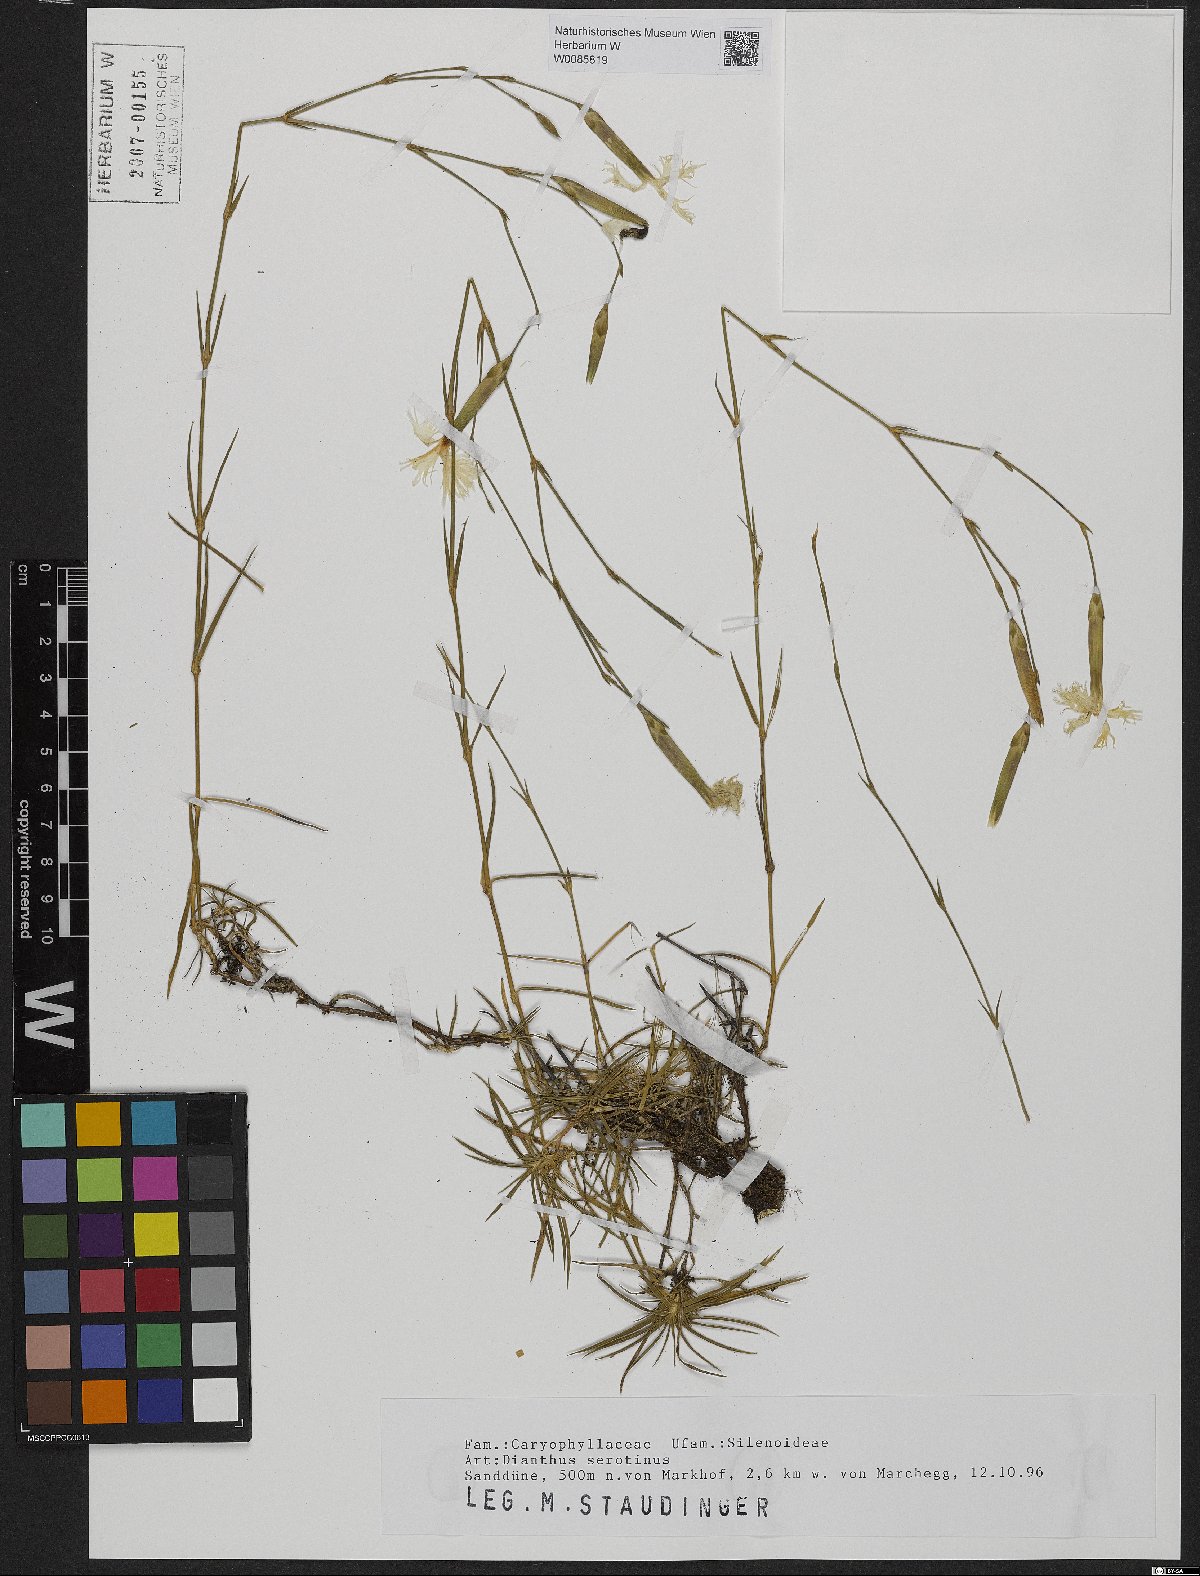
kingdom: Plantae
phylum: Tracheophyta
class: Magnoliopsida
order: Caryophyllales
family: Caryophyllaceae
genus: Dianthus
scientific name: Dianthus serotinus
